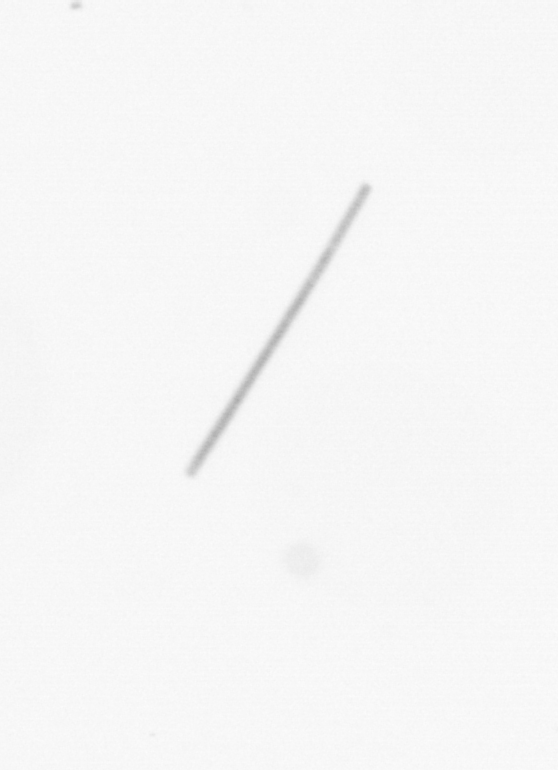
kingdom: Chromista
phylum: Ochrophyta
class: Bacillariophyceae
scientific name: Bacillariophyceae
